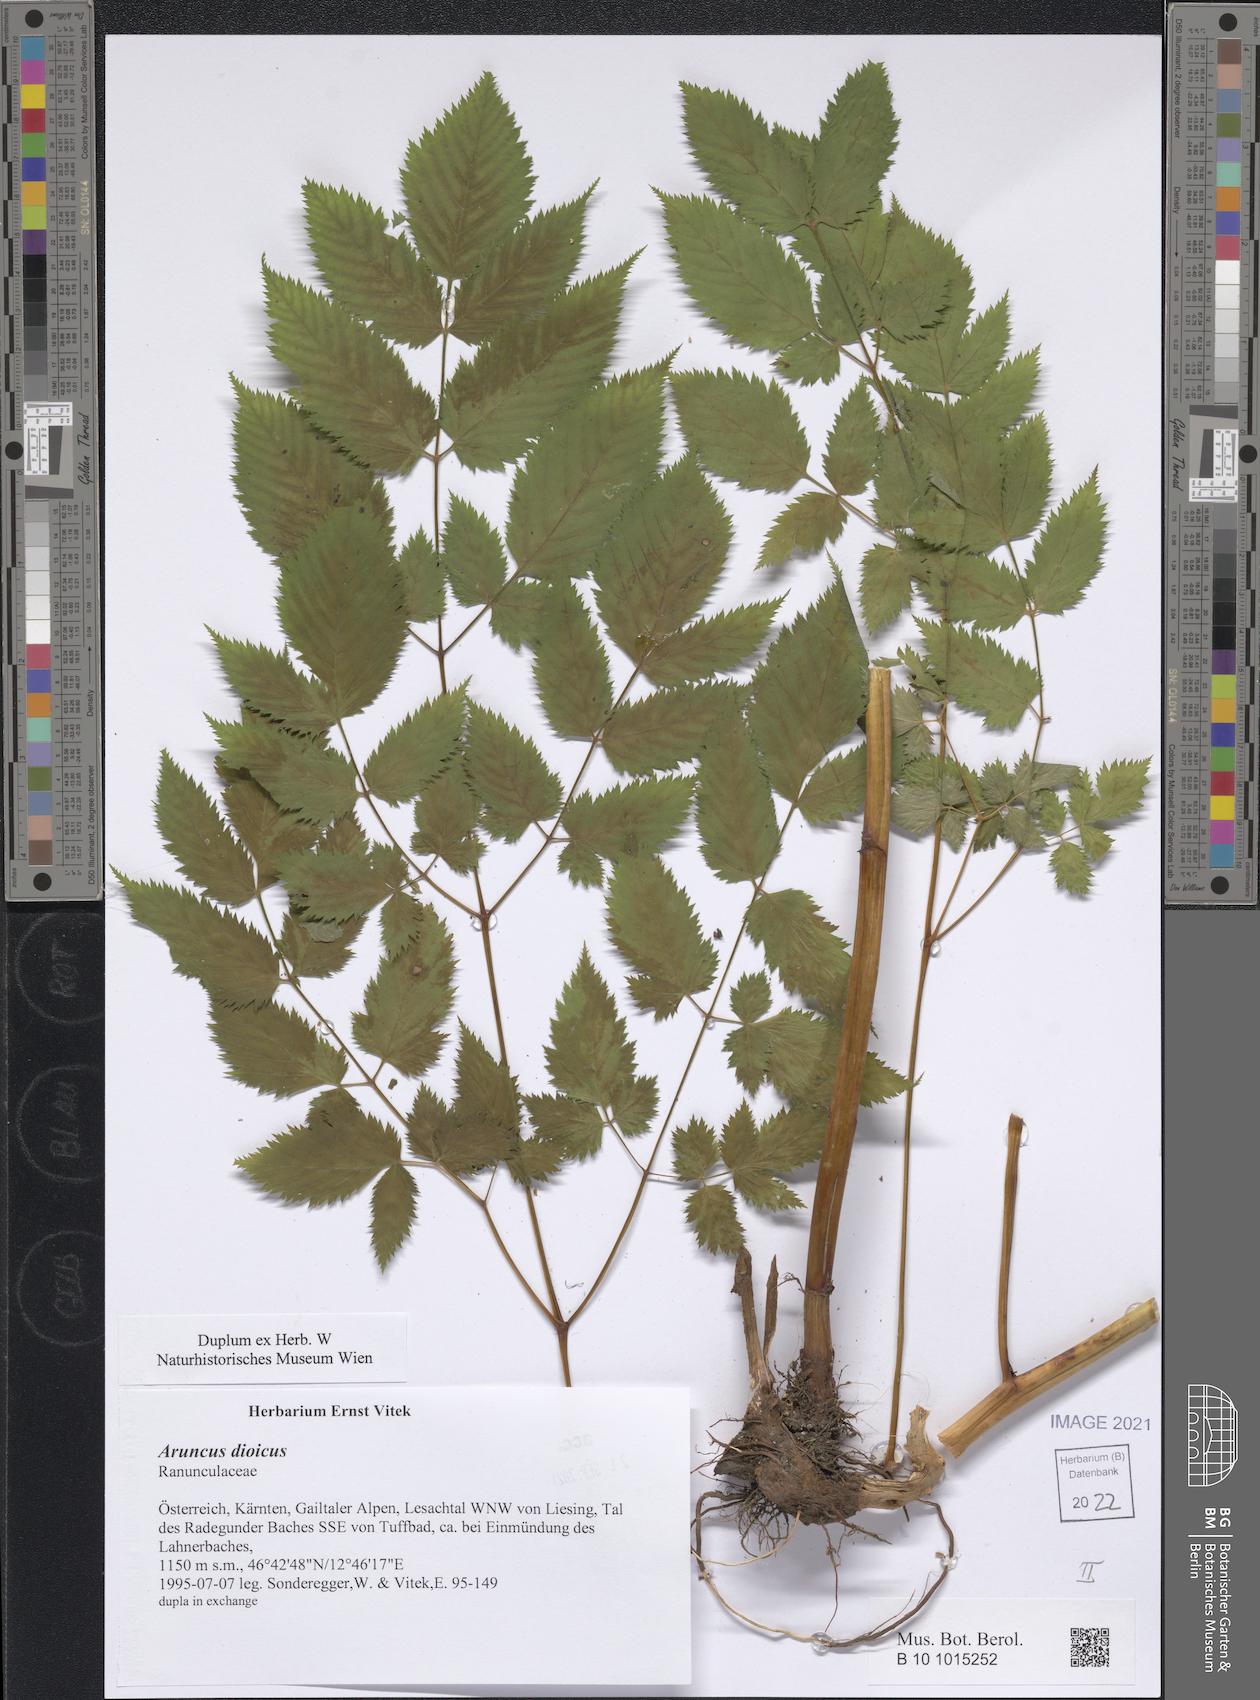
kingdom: Plantae
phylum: Tracheophyta
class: Magnoliopsida
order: Rosales
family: Rosaceae
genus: Aruncus
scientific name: Aruncus dioicus
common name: Buck's-beard
